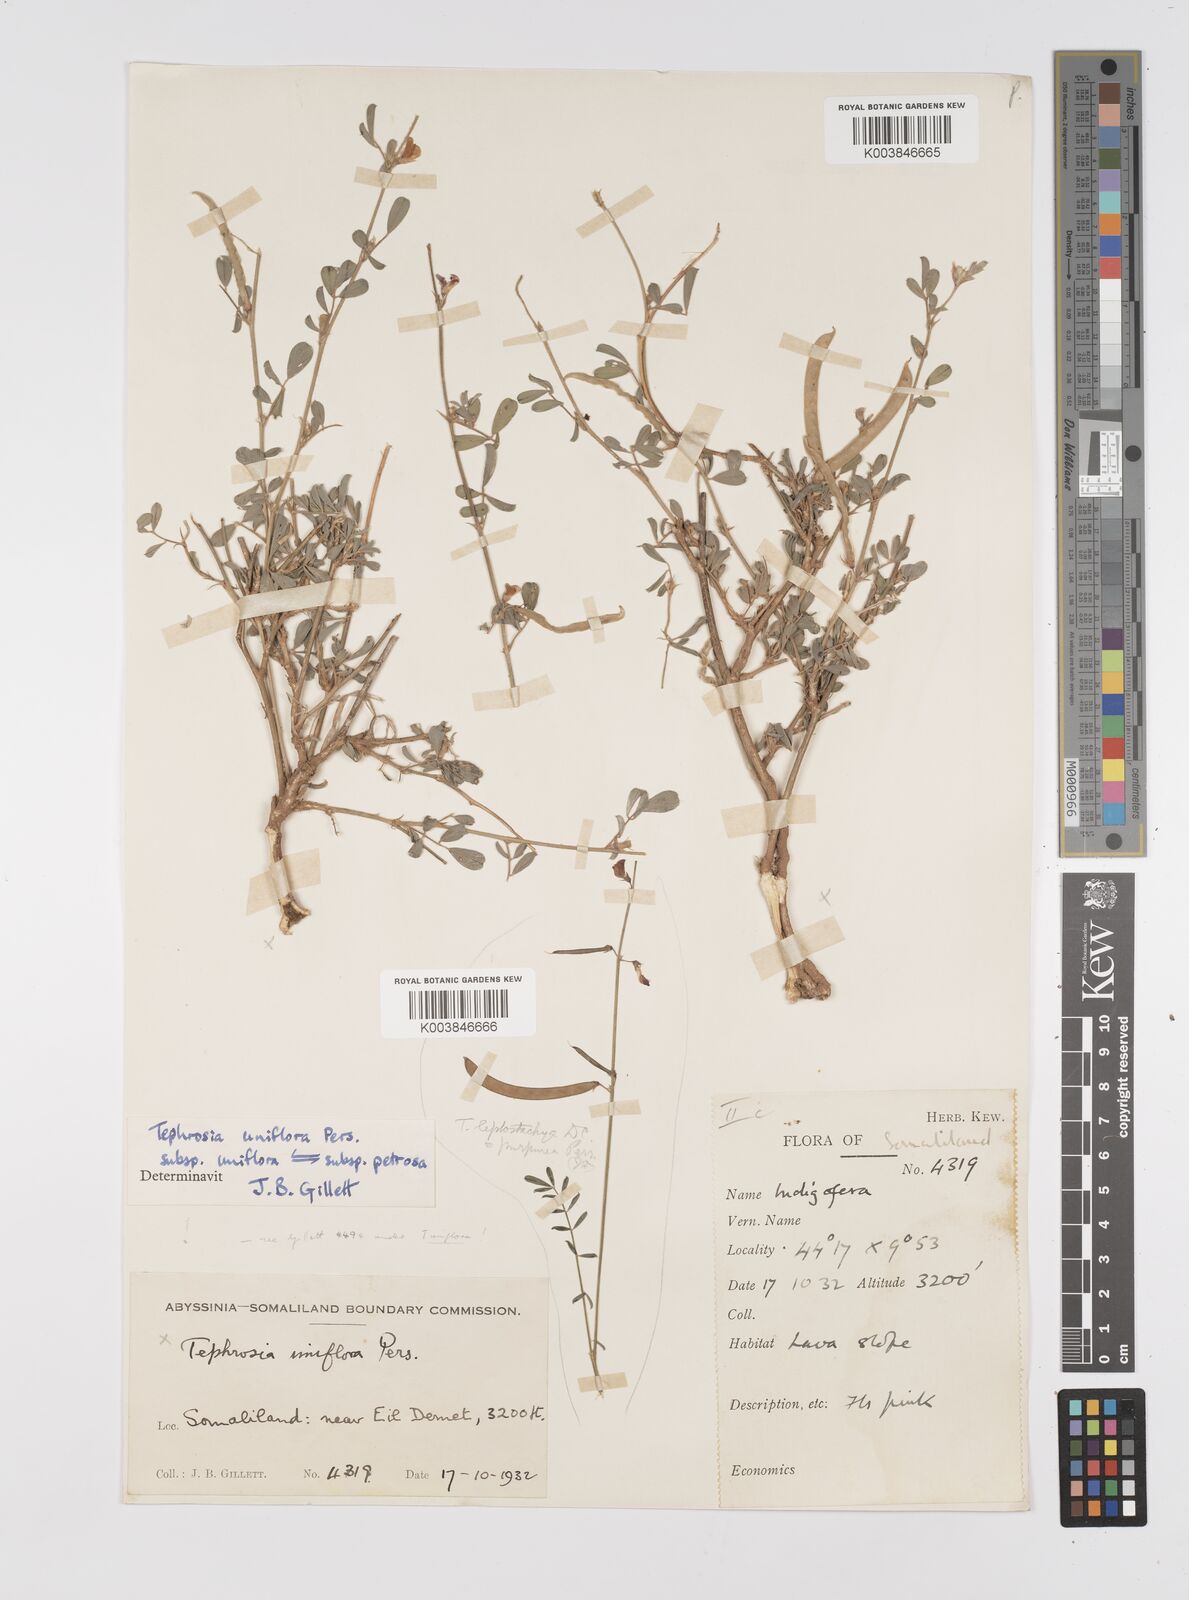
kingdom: Plantae
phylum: Tracheophyta
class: Magnoliopsida
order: Fabales
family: Fabaceae
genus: Tephrosia
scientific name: Tephrosia uniflora
